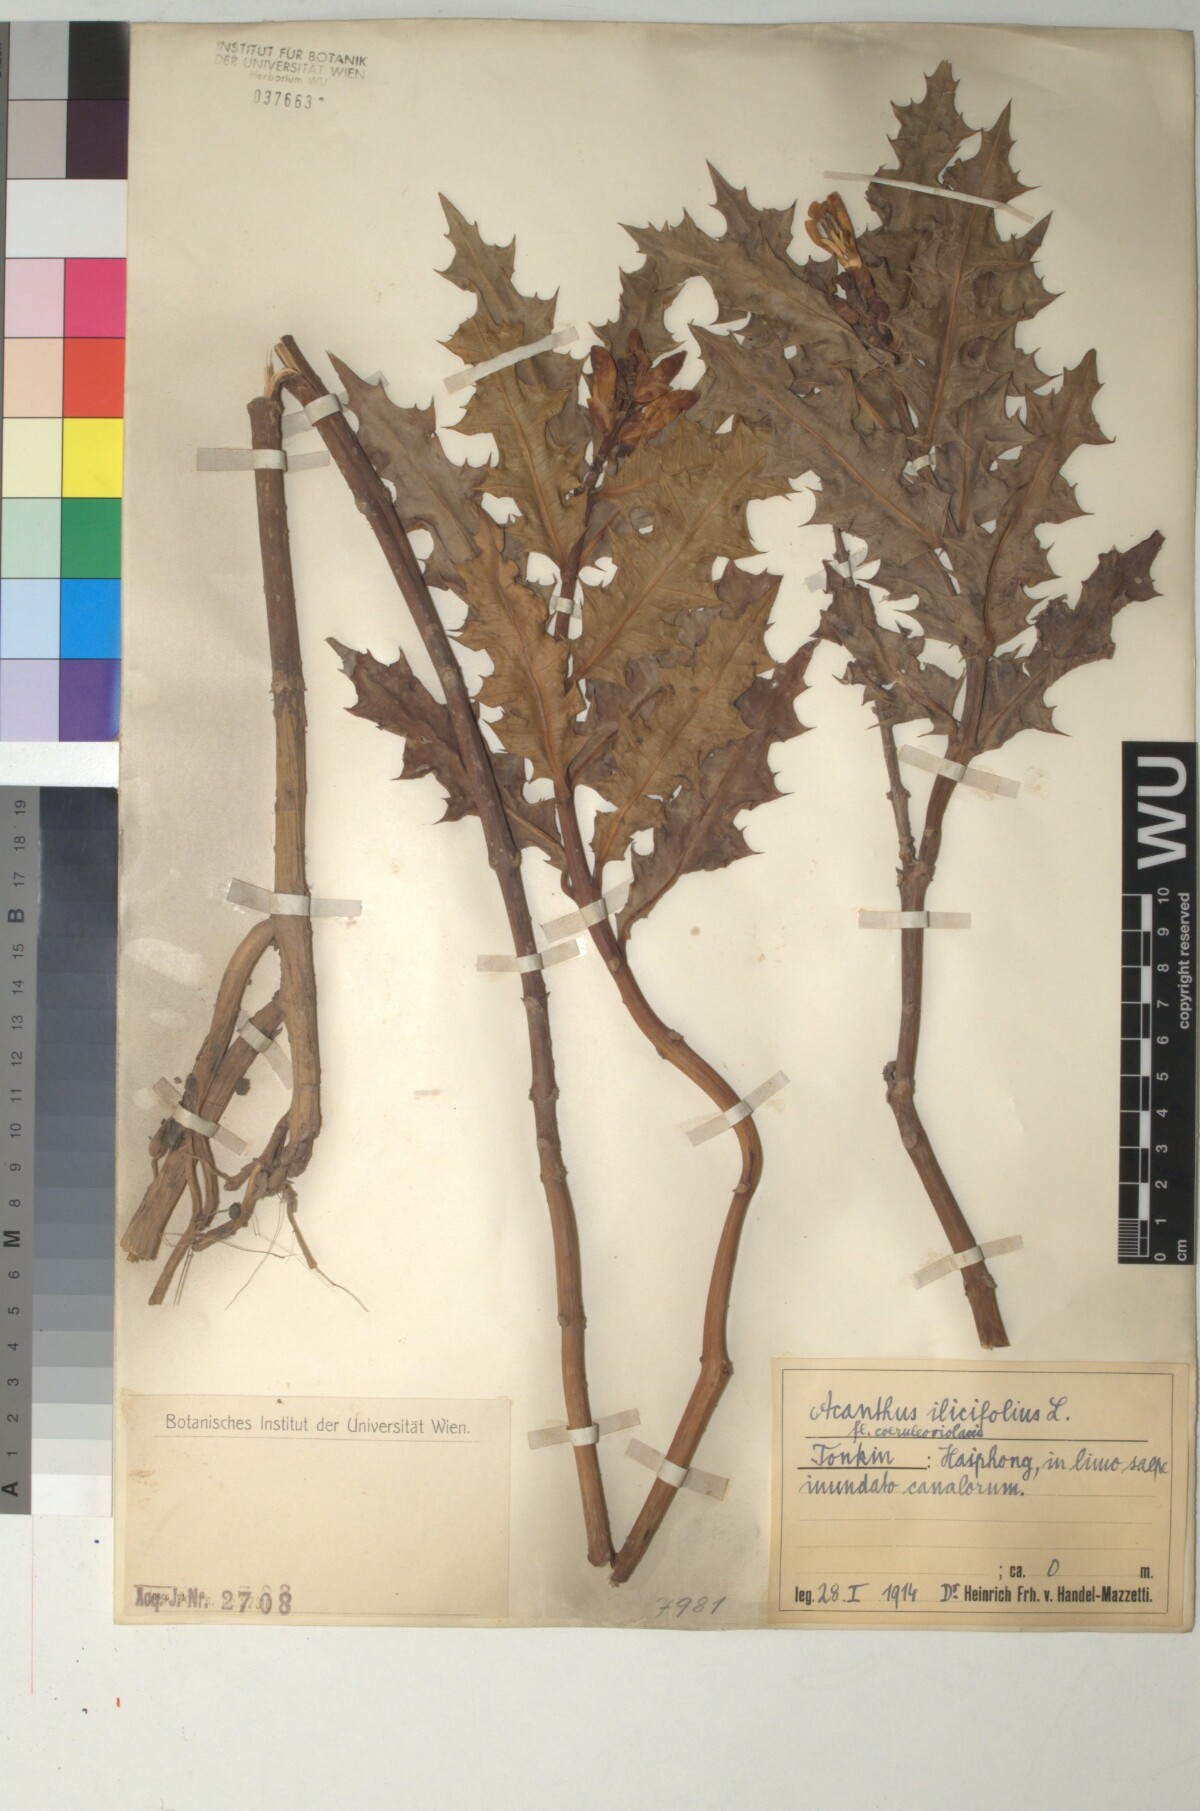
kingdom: Plantae
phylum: Tracheophyta
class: Magnoliopsida
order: Lamiales
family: Acanthaceae
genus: Acanthus
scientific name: Acanthus ilicifolius
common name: Holy mangrove
